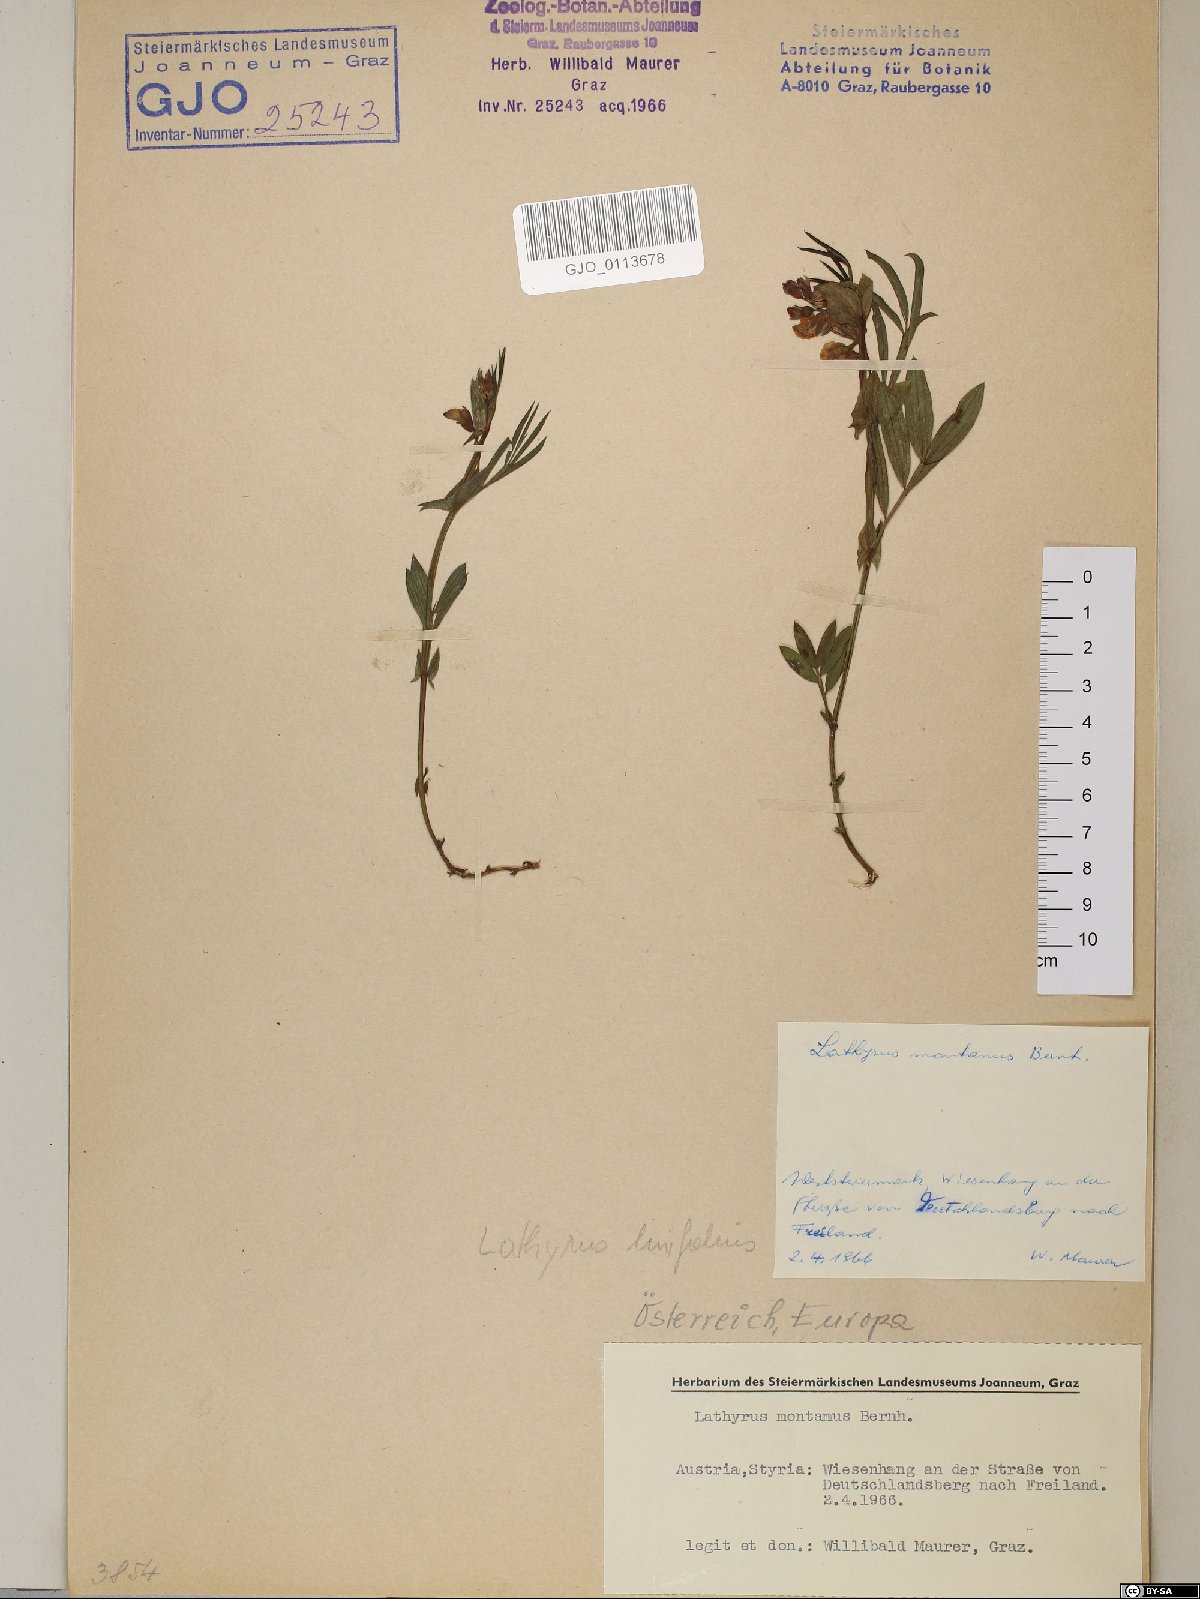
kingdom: Plantae
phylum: Tracheophyta
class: Magnoliopsida
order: Fabales
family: Fabaceae
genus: Lathyrus
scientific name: Lathyrus linifolius
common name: Bitter-vetch
